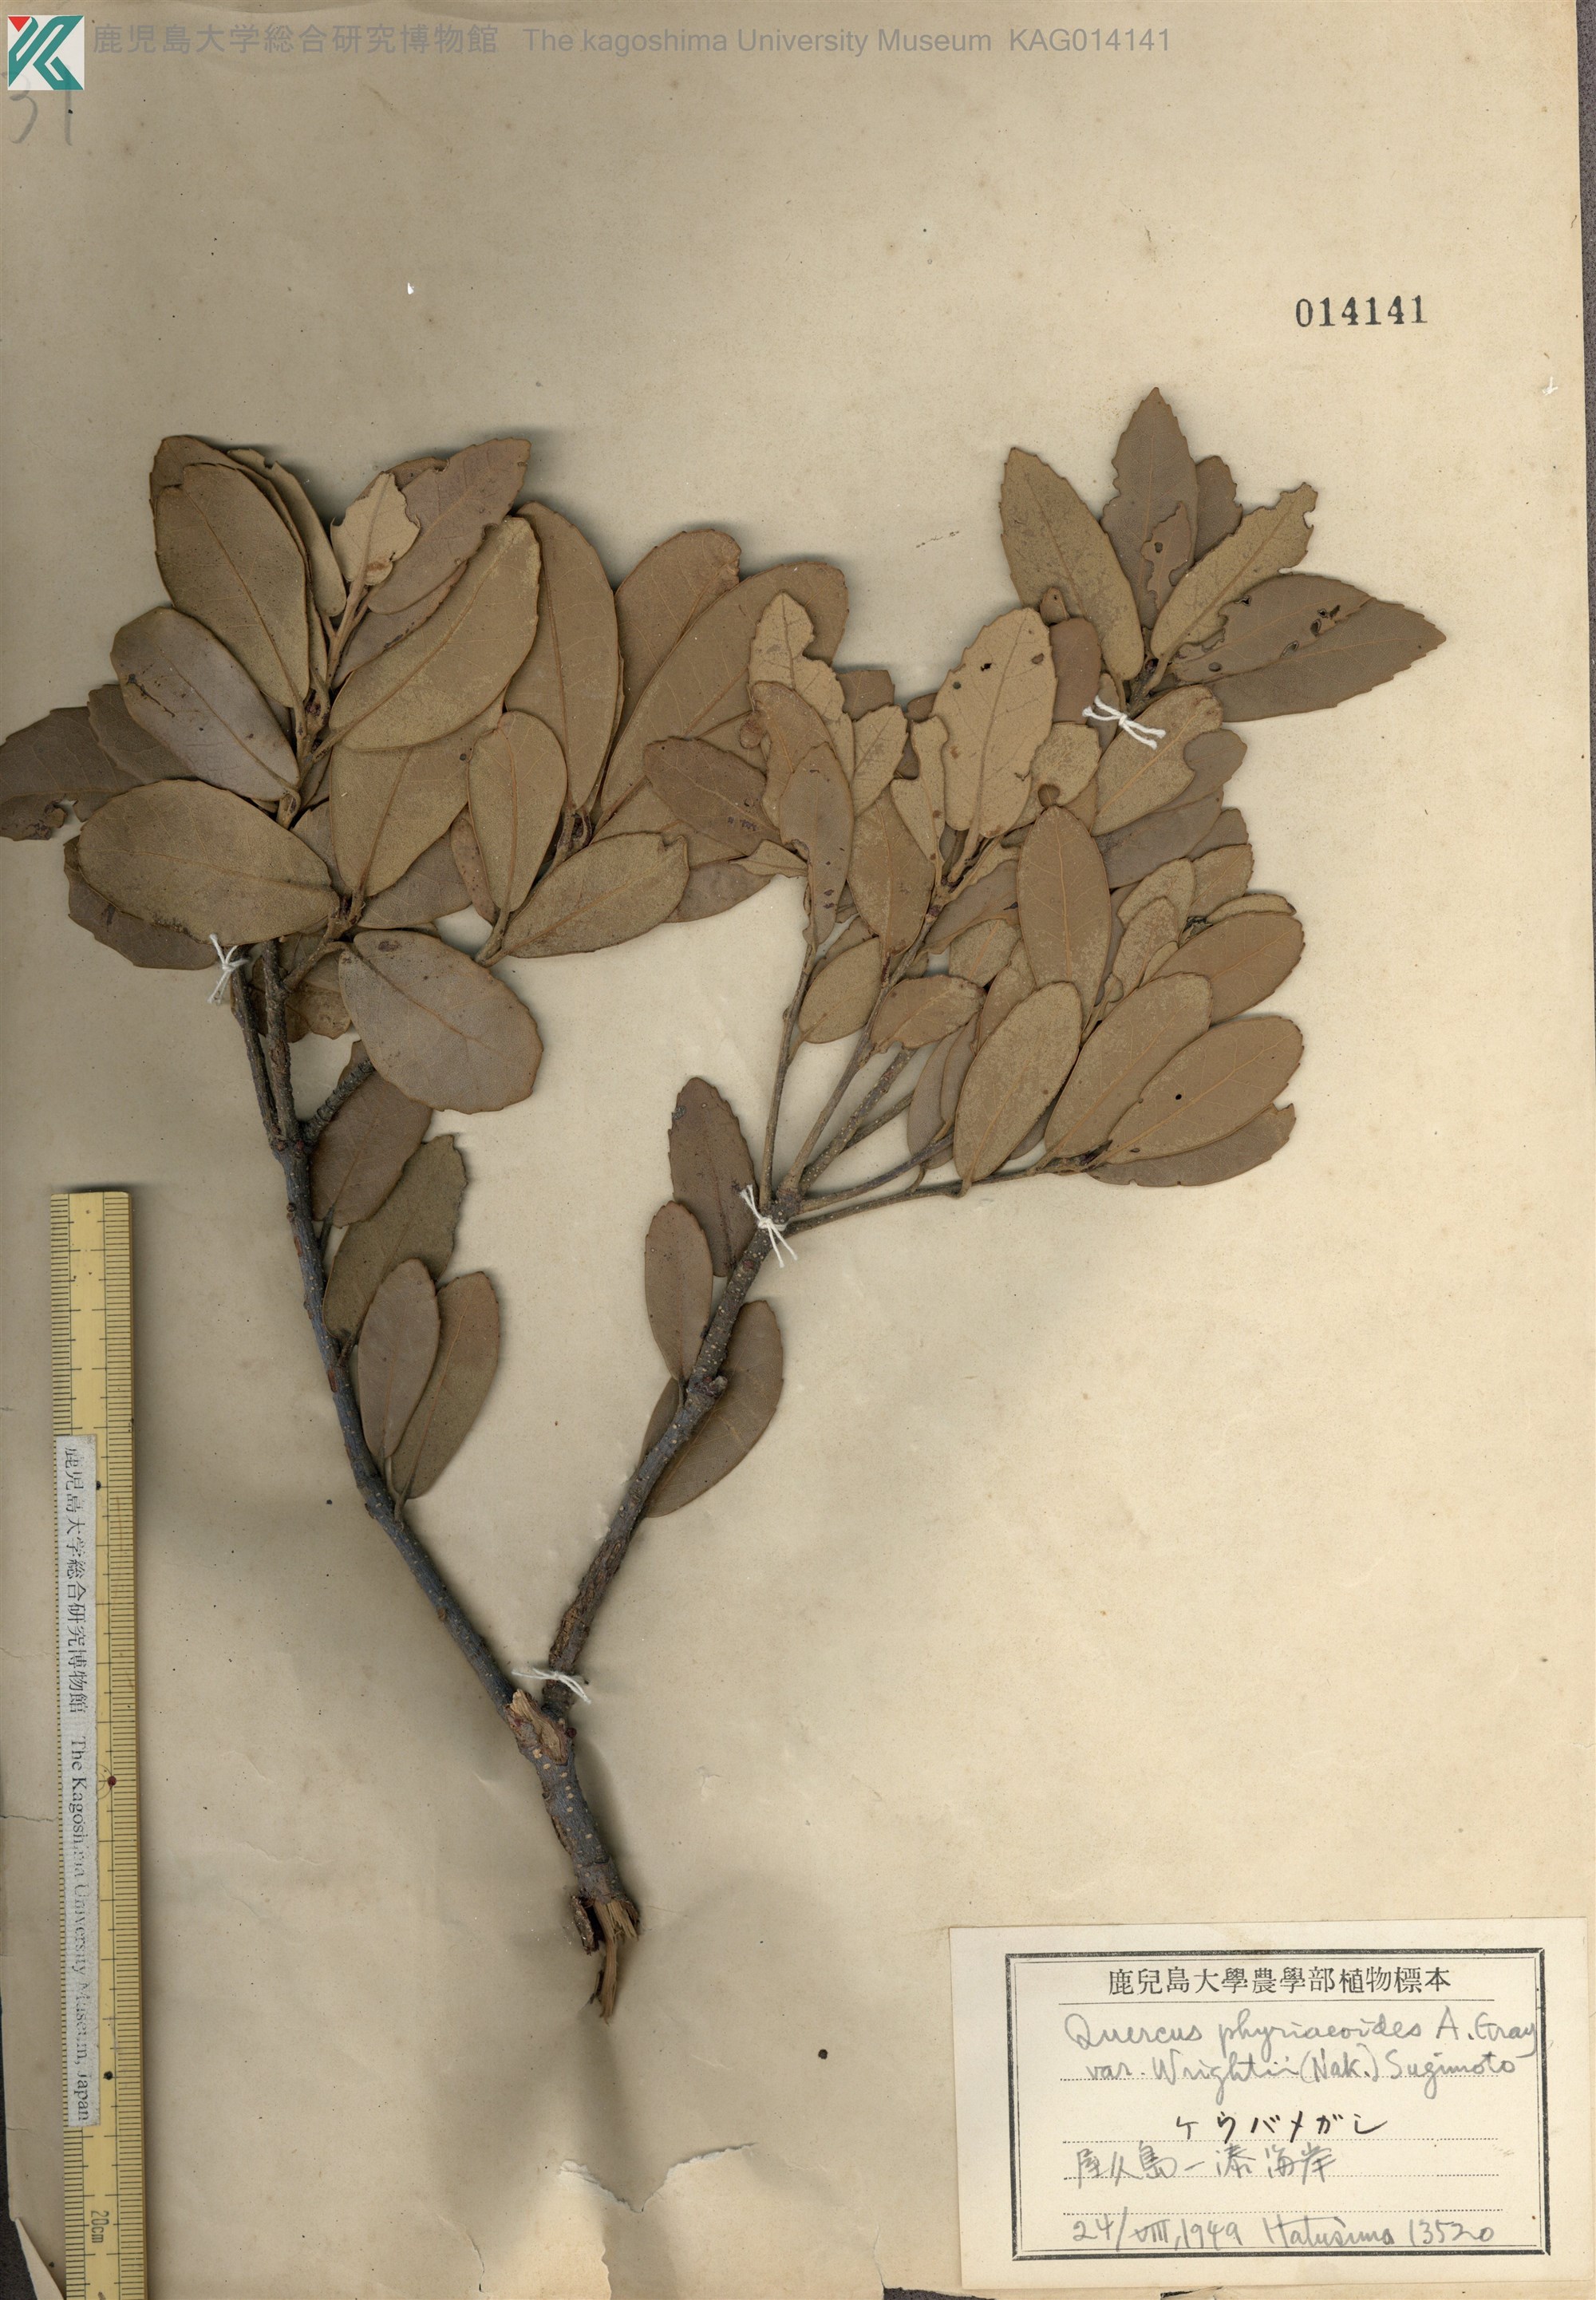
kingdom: Plantae
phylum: Tracheophyta
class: Magnoliopsida
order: Fagales
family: Fagaceae
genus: Quercus
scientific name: Quercus phillyreoides
